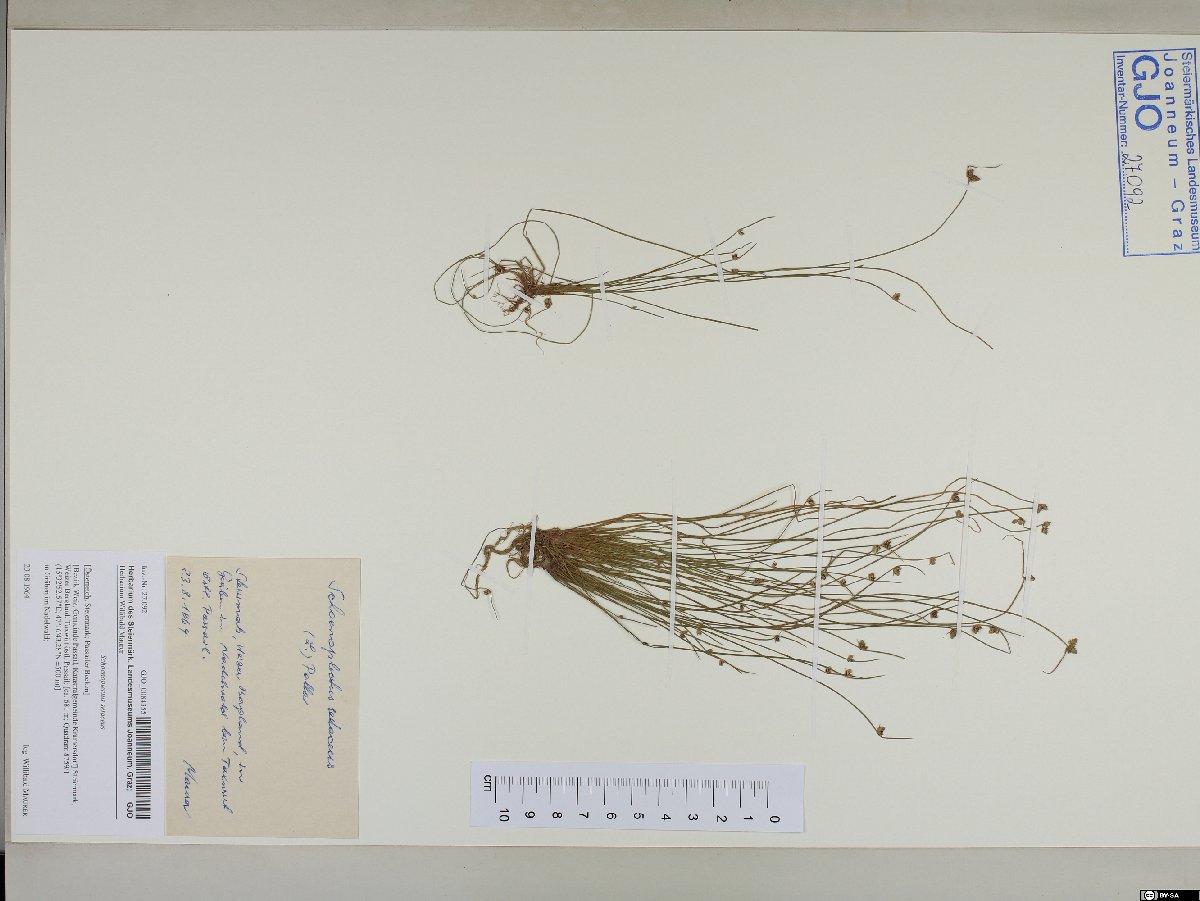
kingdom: Plantae
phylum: Tracheophyta
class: Liliopsida
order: Poales
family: Cyperaceae
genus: Isolepis
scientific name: Isolepis setacea
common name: Bristle club-rush
